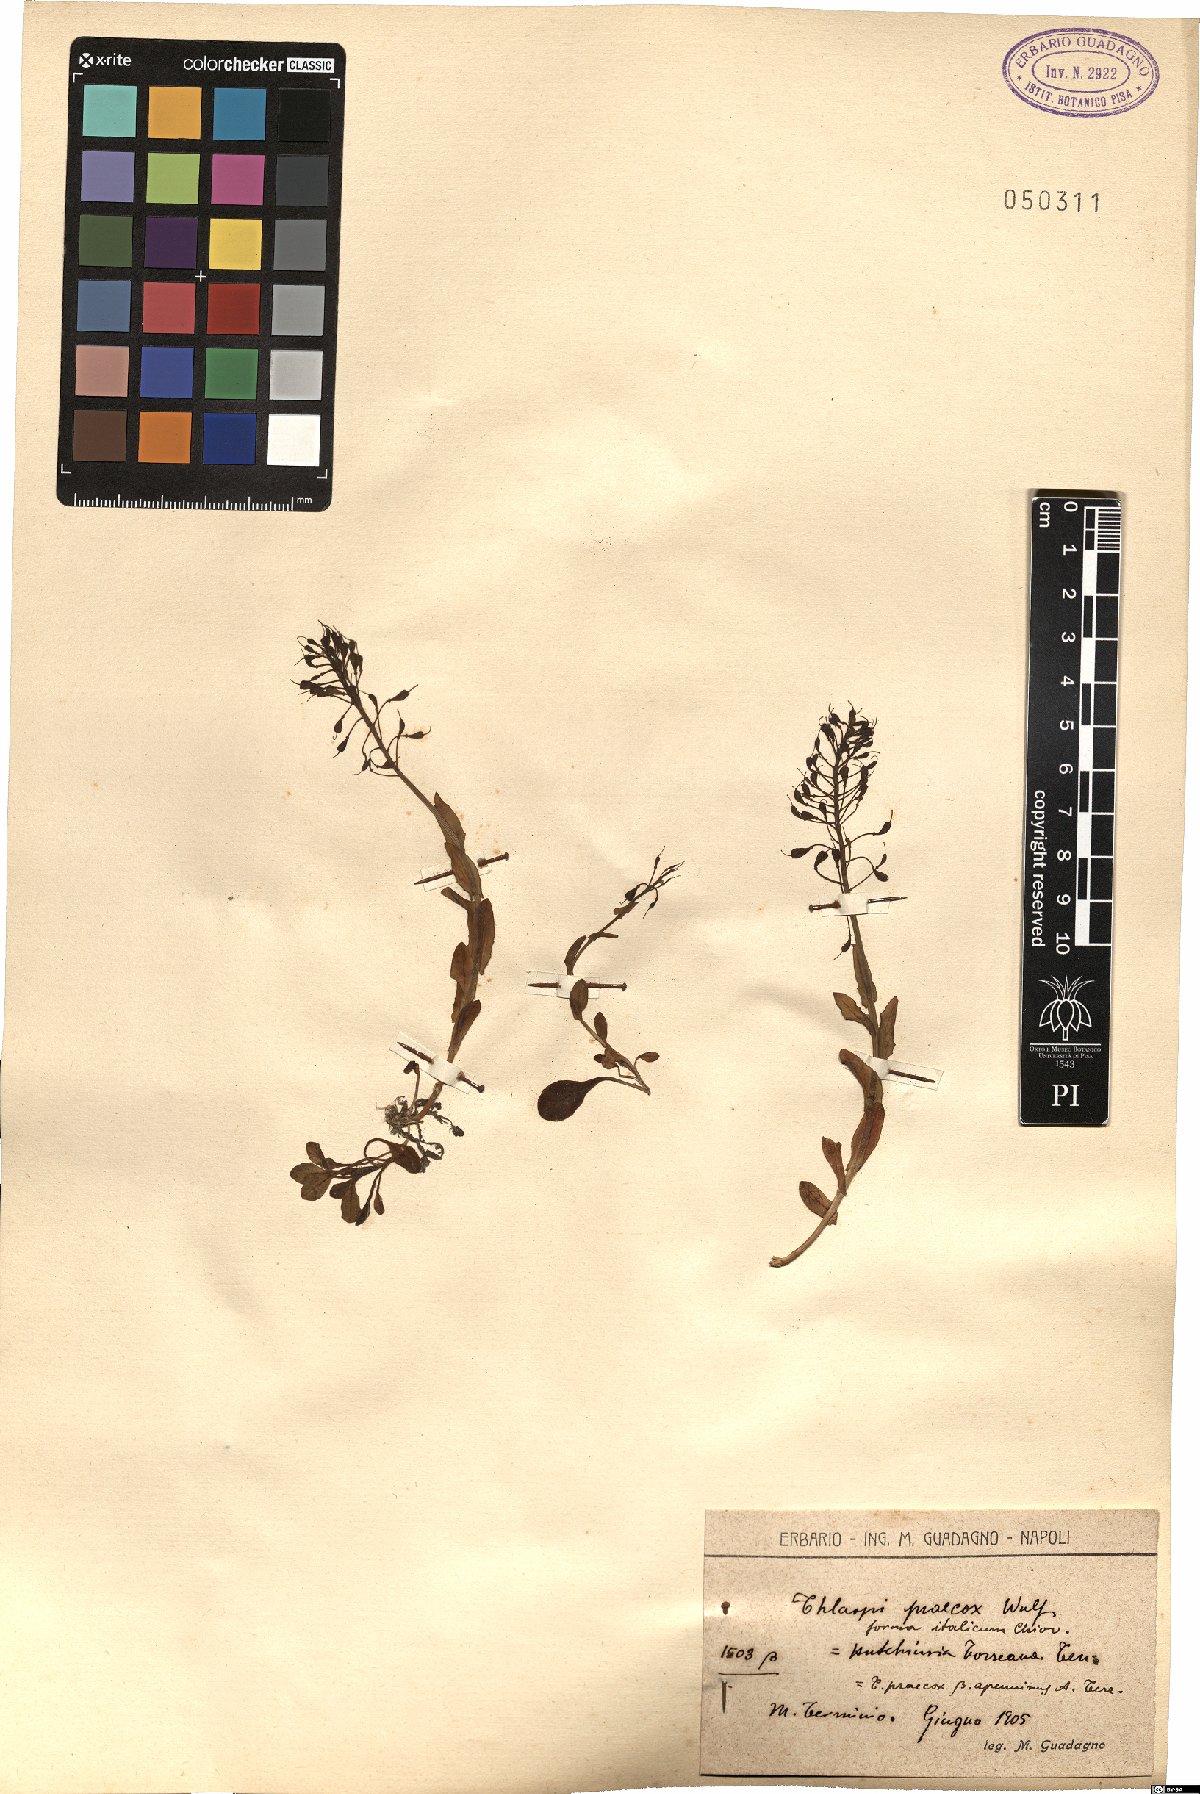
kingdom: Plantae
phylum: Tracheophyta
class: Magnoliopsida
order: Brassicales
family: Brassicaceae
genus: Noccaea
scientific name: Noccaea praecox
